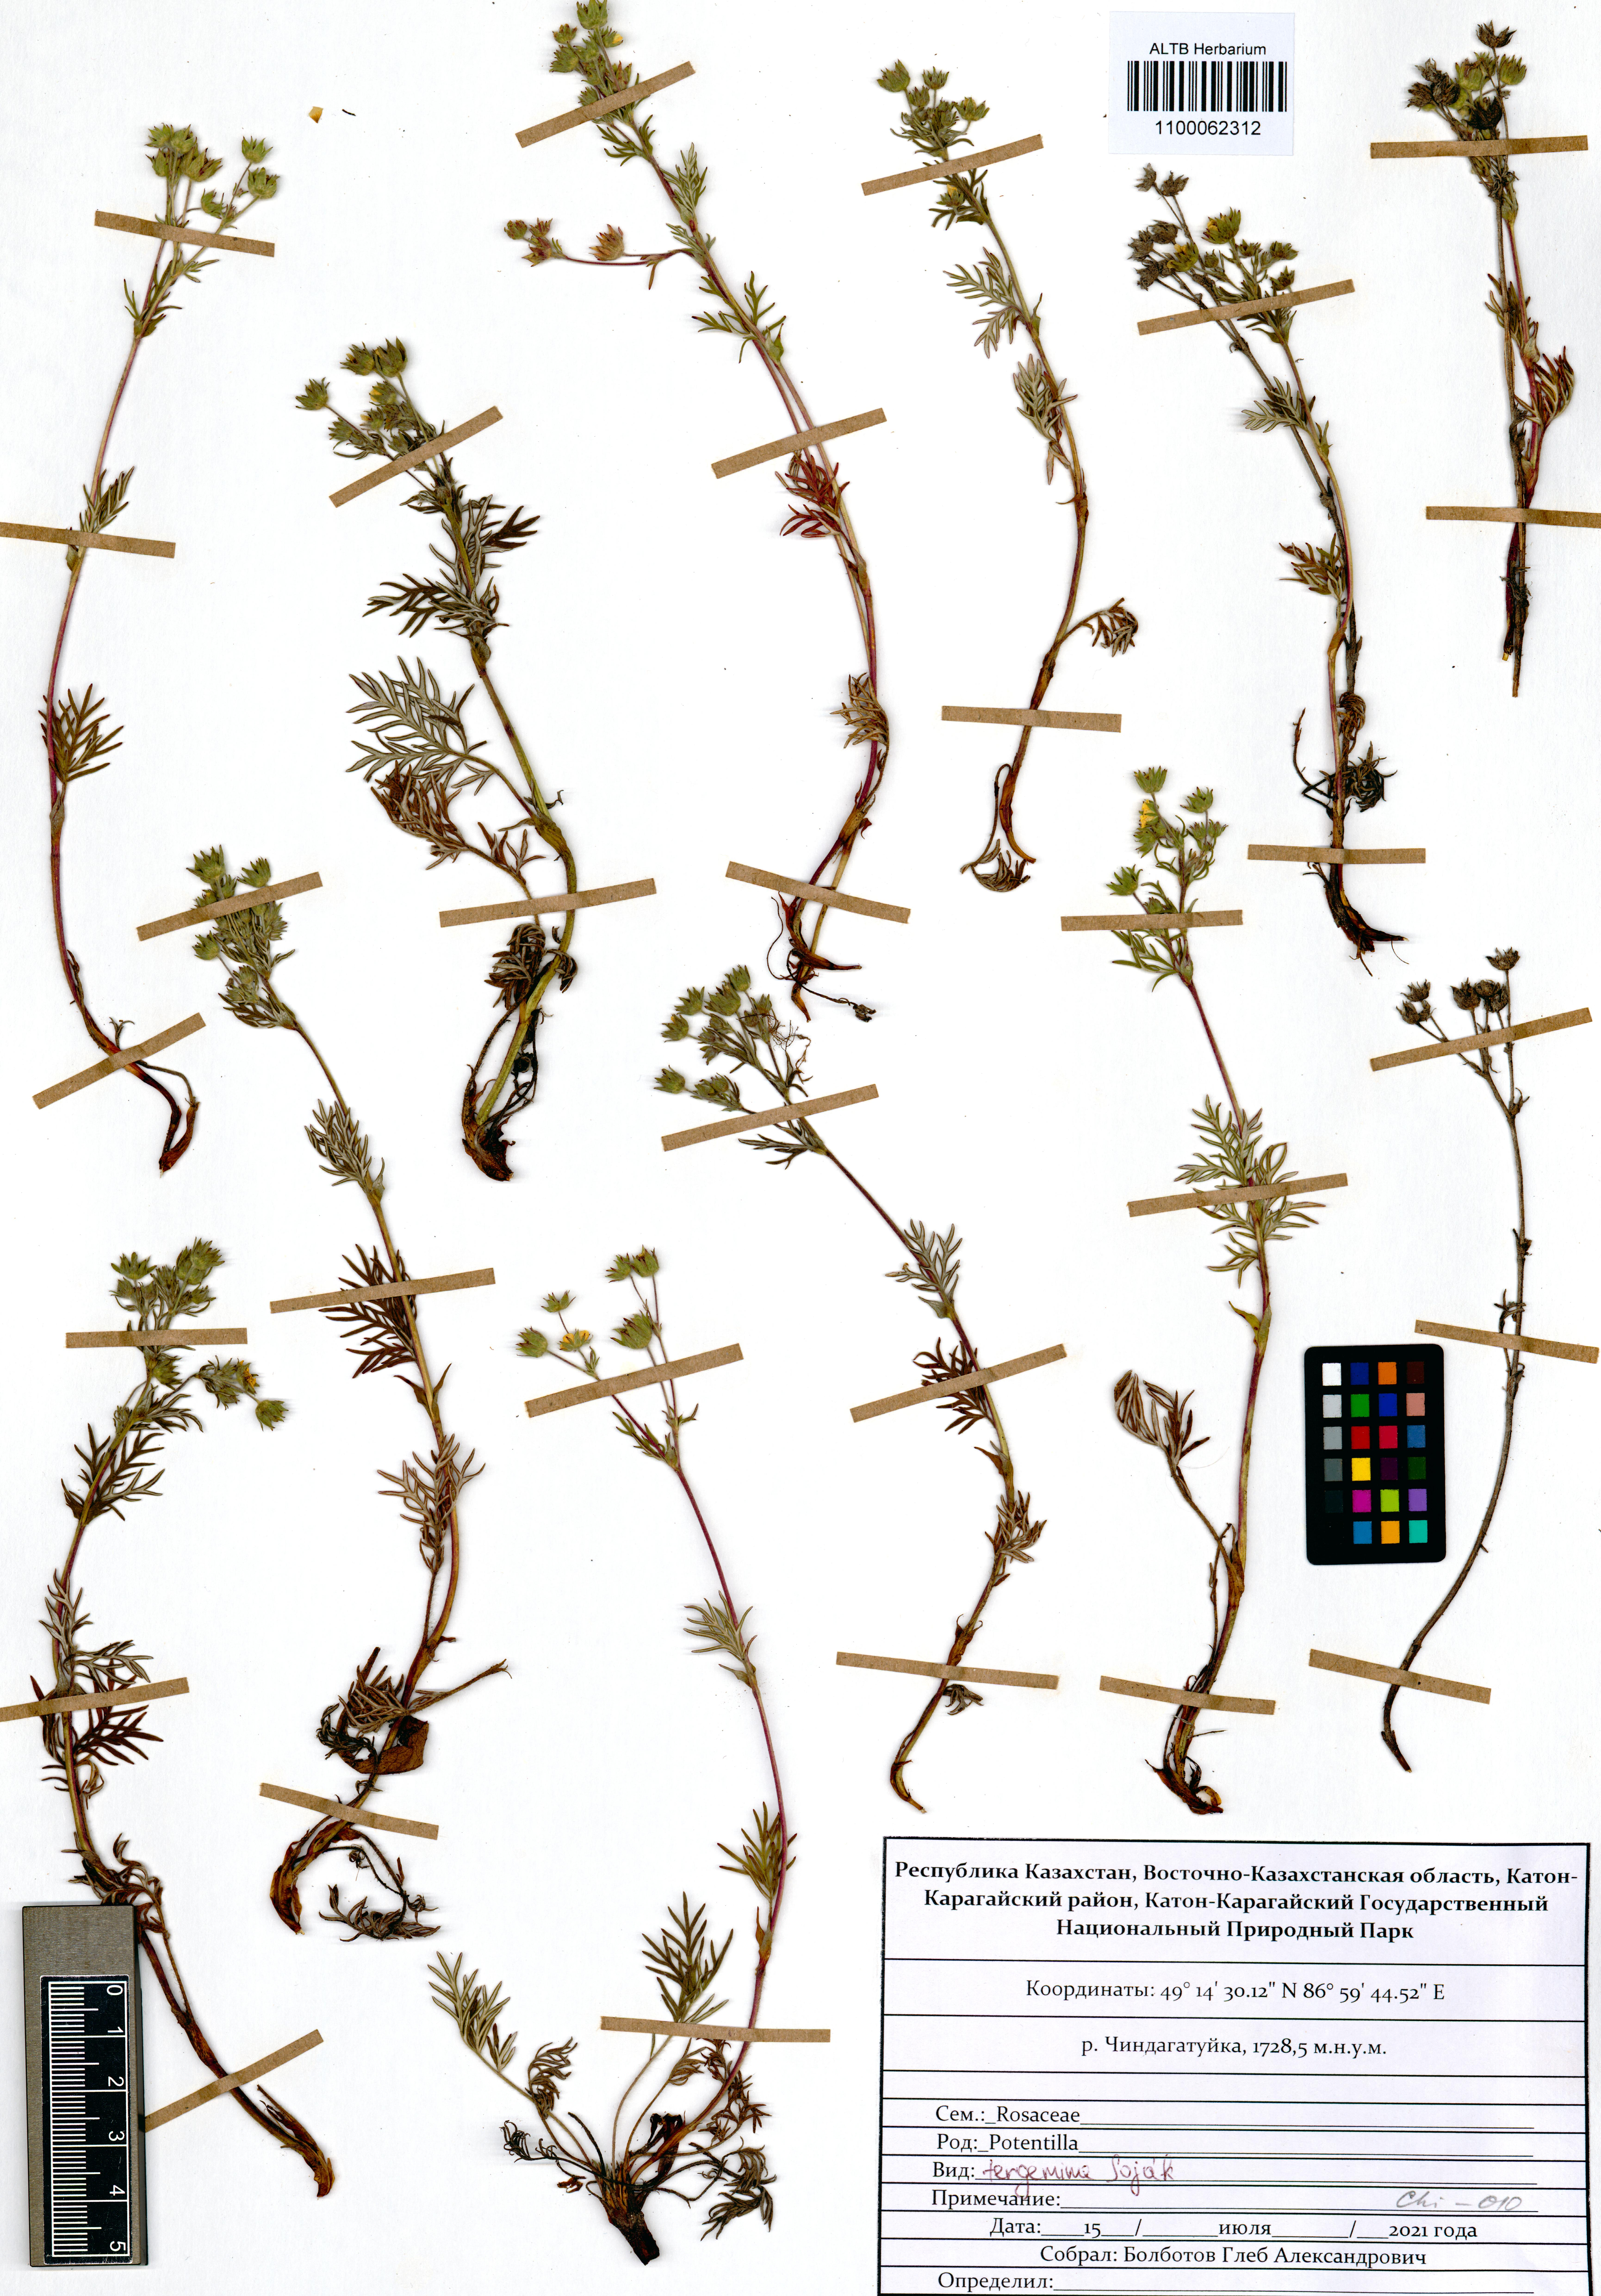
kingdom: Plantae
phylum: Tracheophyta
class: Magnoliopsida
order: Rosales
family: Rosaceae
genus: Potentilla
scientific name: Potentilla tergemina
